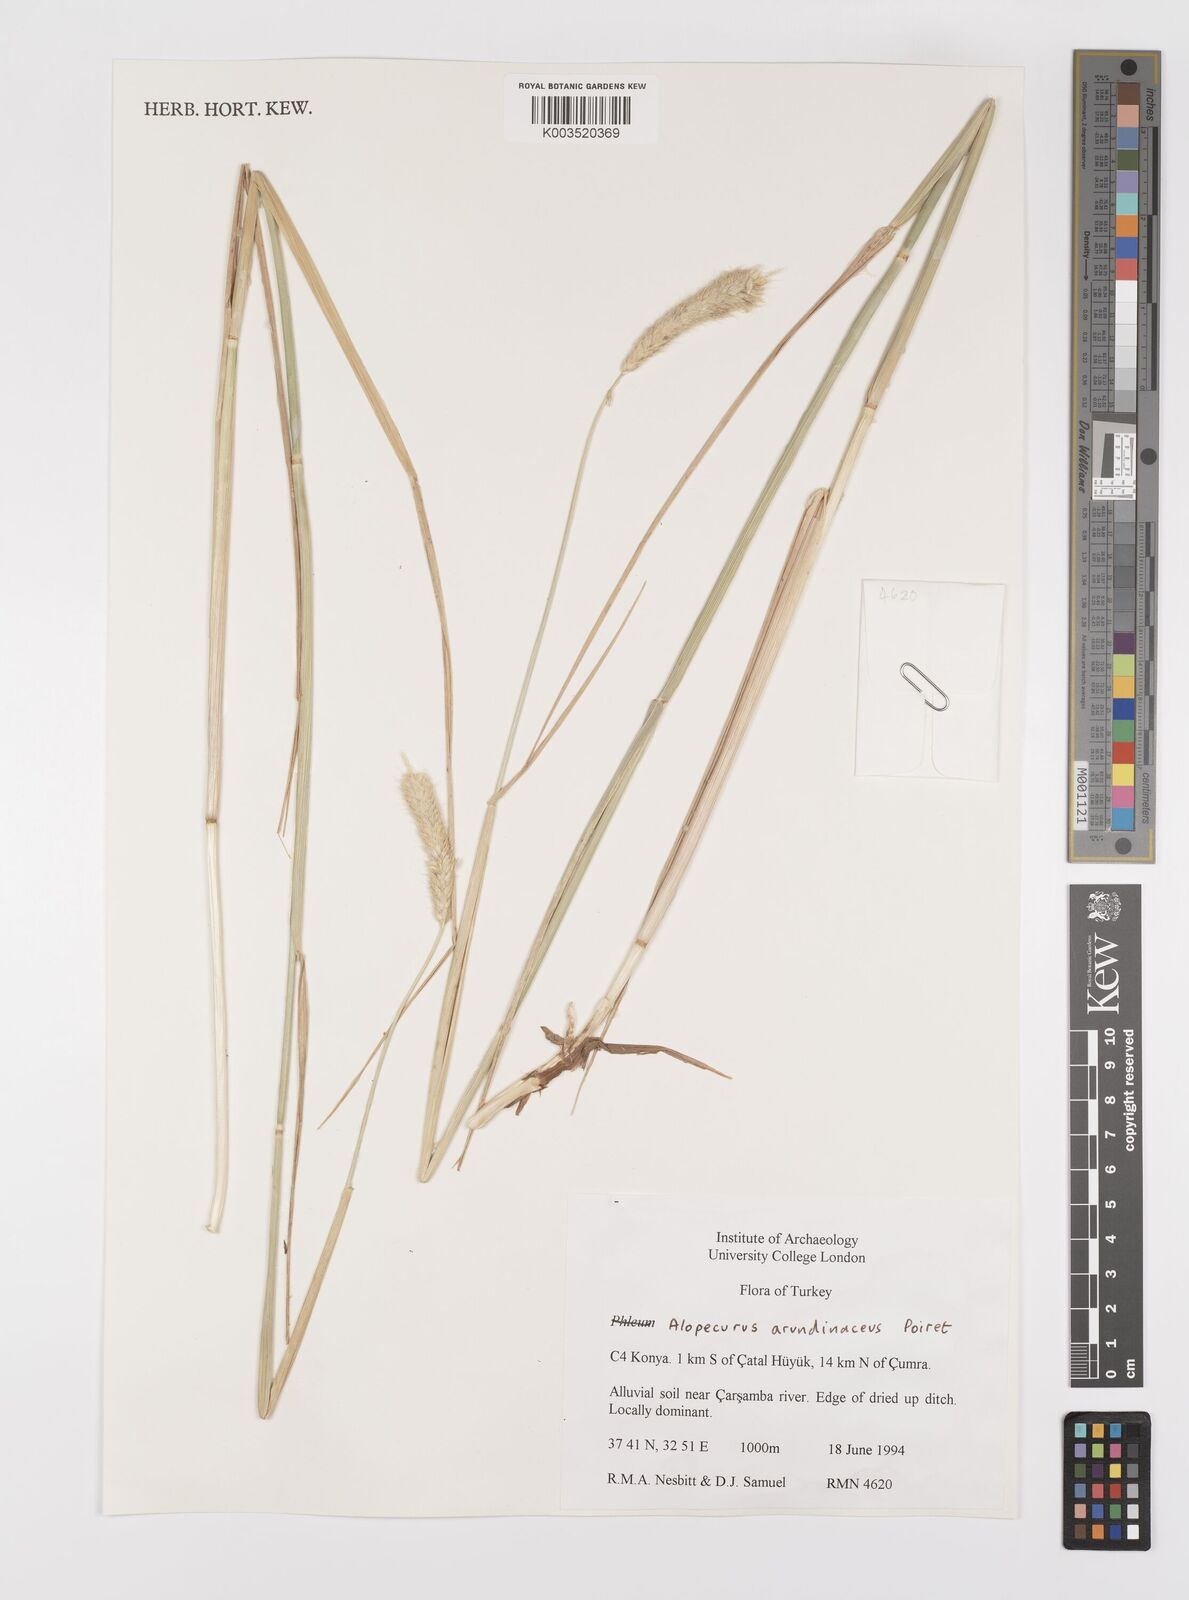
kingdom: Plantae
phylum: Tracheophyta
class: Liliopsida
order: Poales
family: Poaceae
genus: Alopecurus
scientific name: Alopecurus arundinaceus
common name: Creeping meadow foxtail
